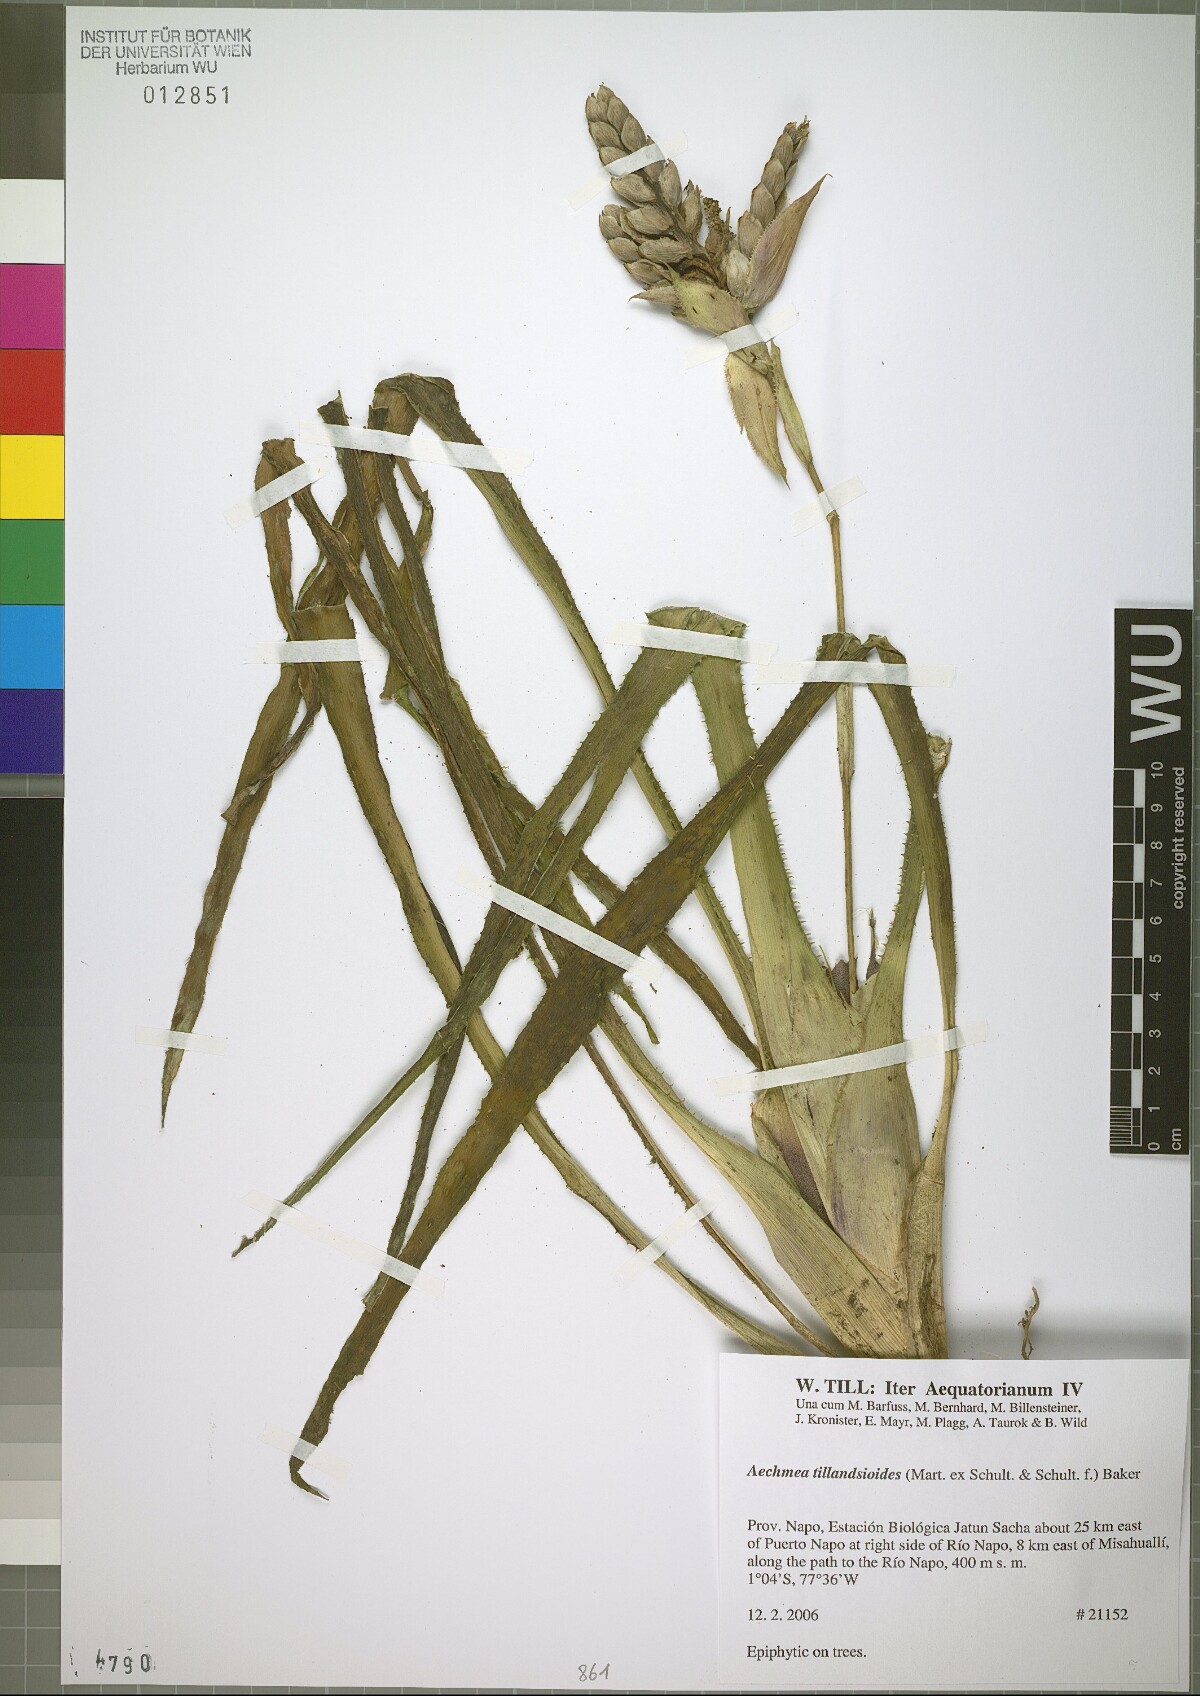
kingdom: Plantae
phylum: Tracheophyta
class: Liliopsida
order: Poales
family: Bromeliaceae
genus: Aechmea
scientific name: Aechmea tillandsioides
